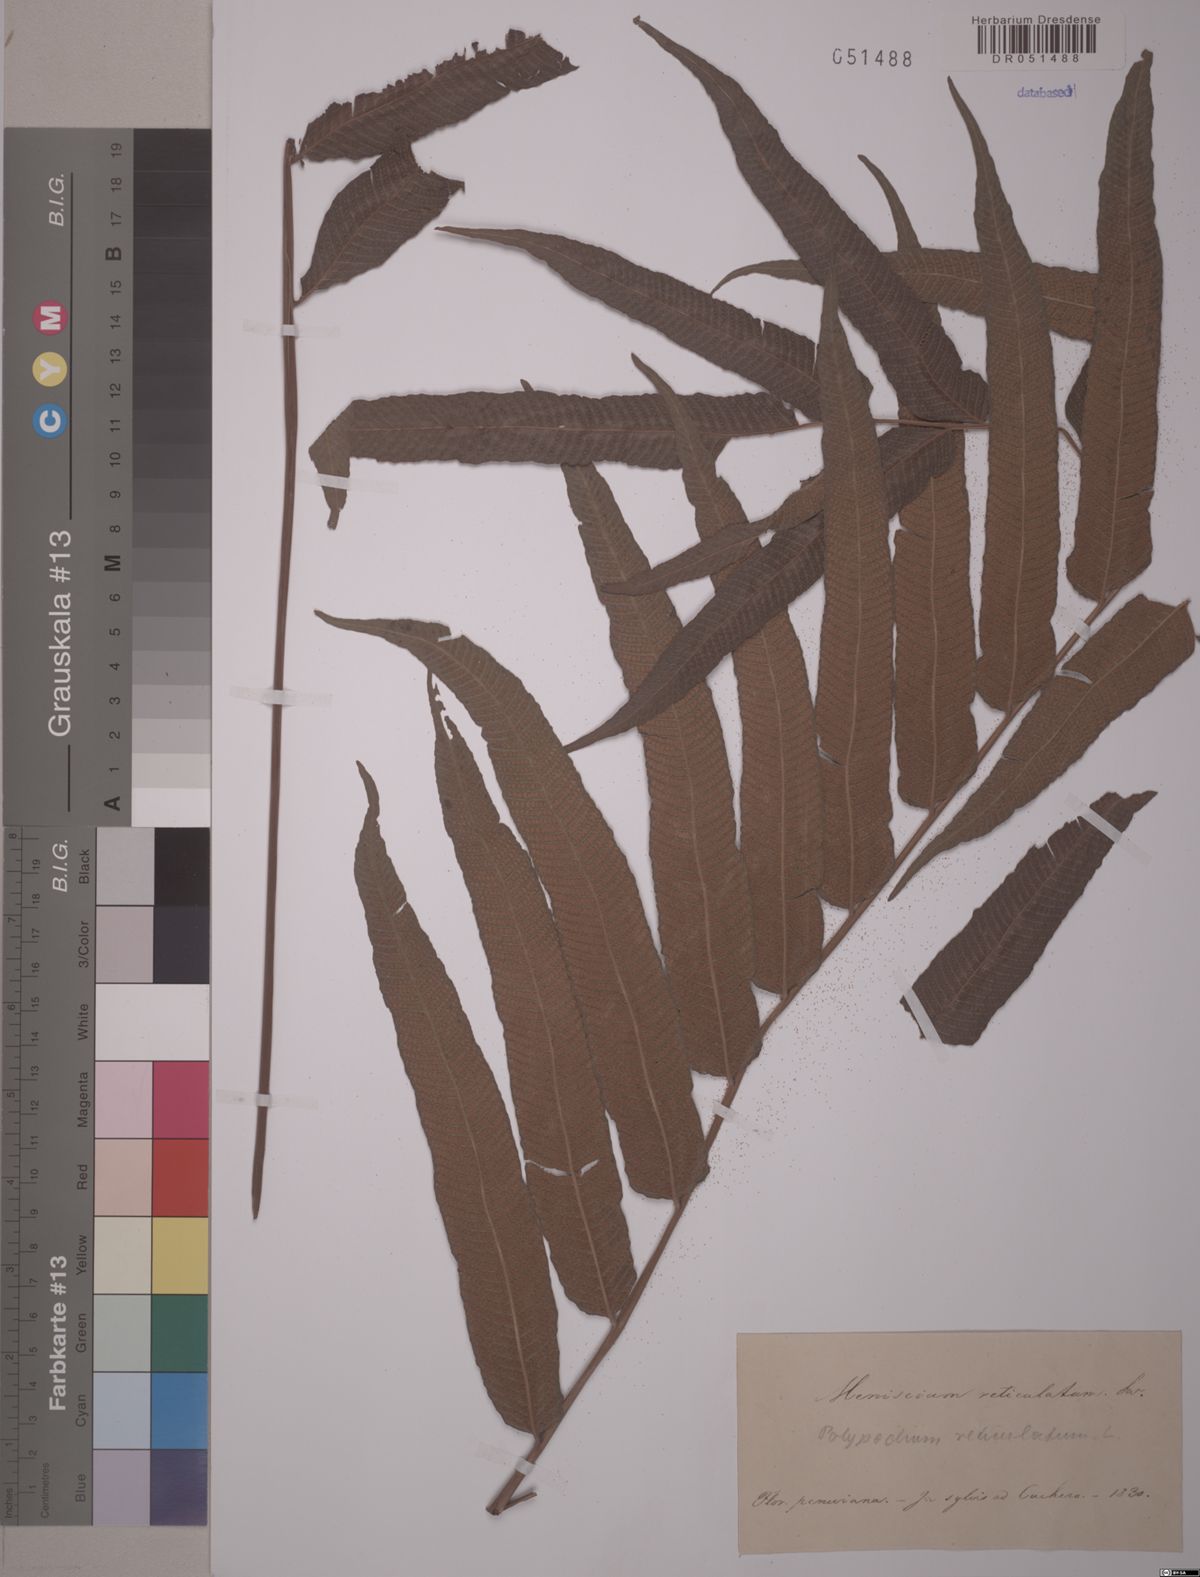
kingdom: Plantae
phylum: Tracheophyta
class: Polypodiopsida
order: Polypodiales
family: Thelypteridaceae
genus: Meniscium
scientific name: Meniscium reticulatum
